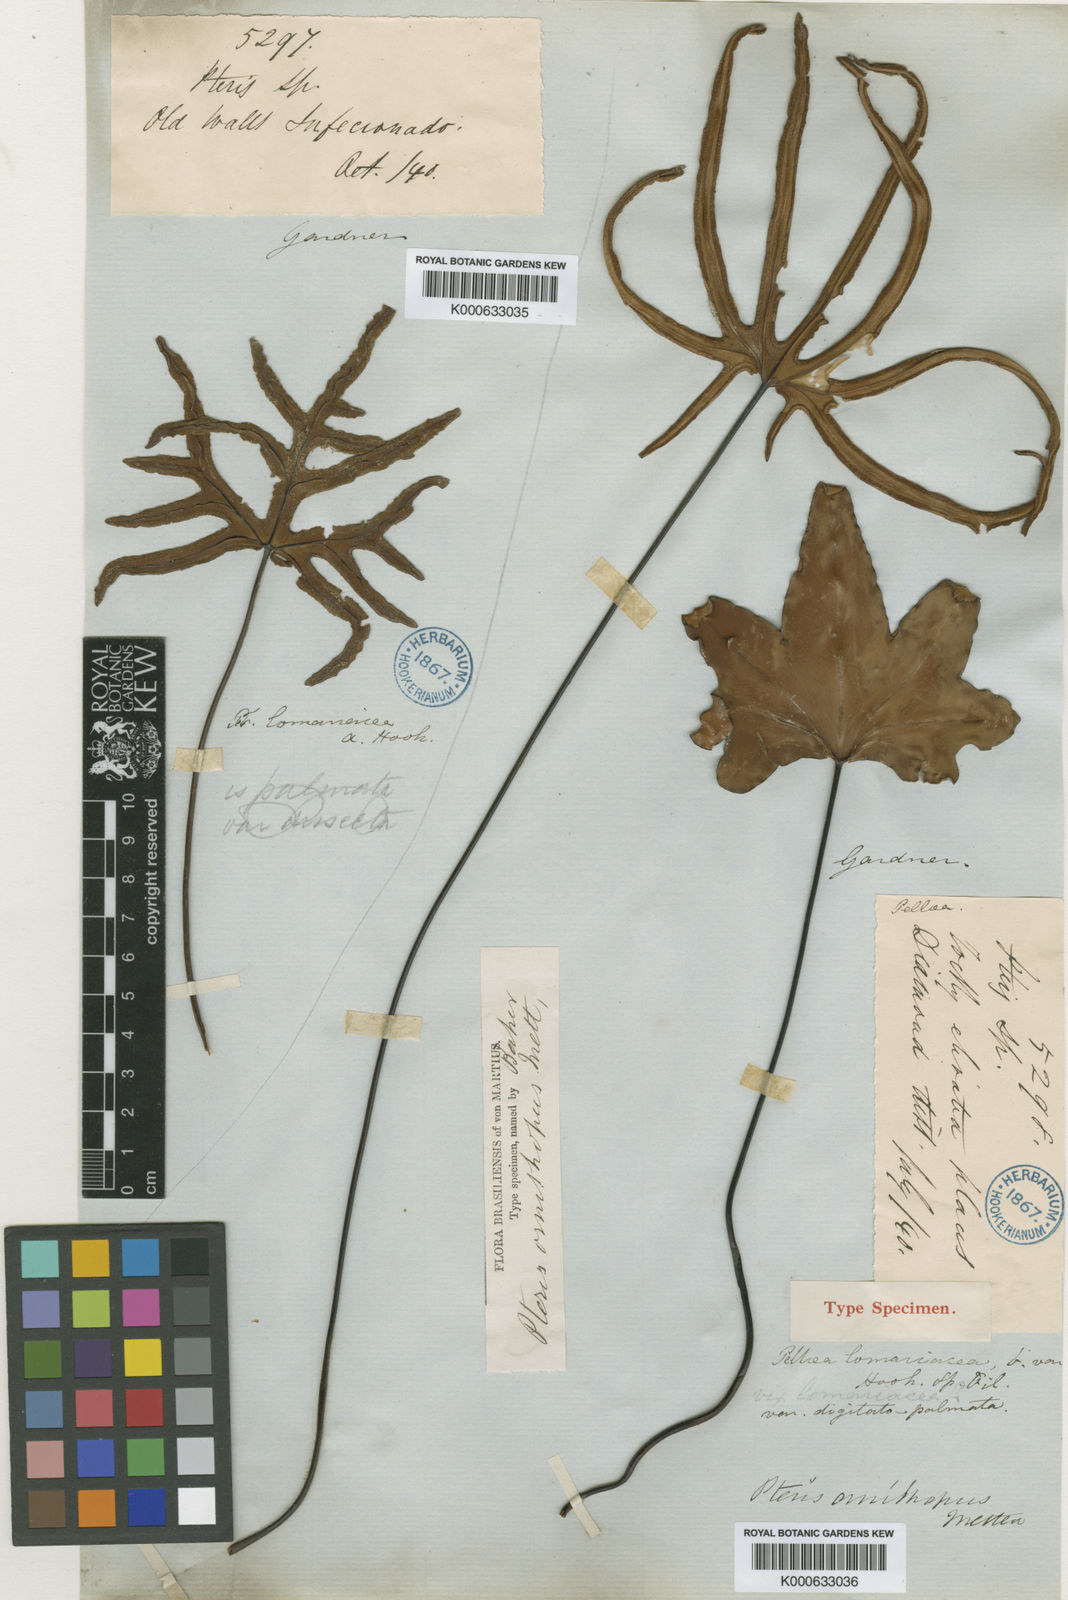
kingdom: Plantae
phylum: Tracheophyta
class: Polypodiopsida
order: Polypodiales
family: Pteridaceae
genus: Doryopteris
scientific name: Doryopteris
